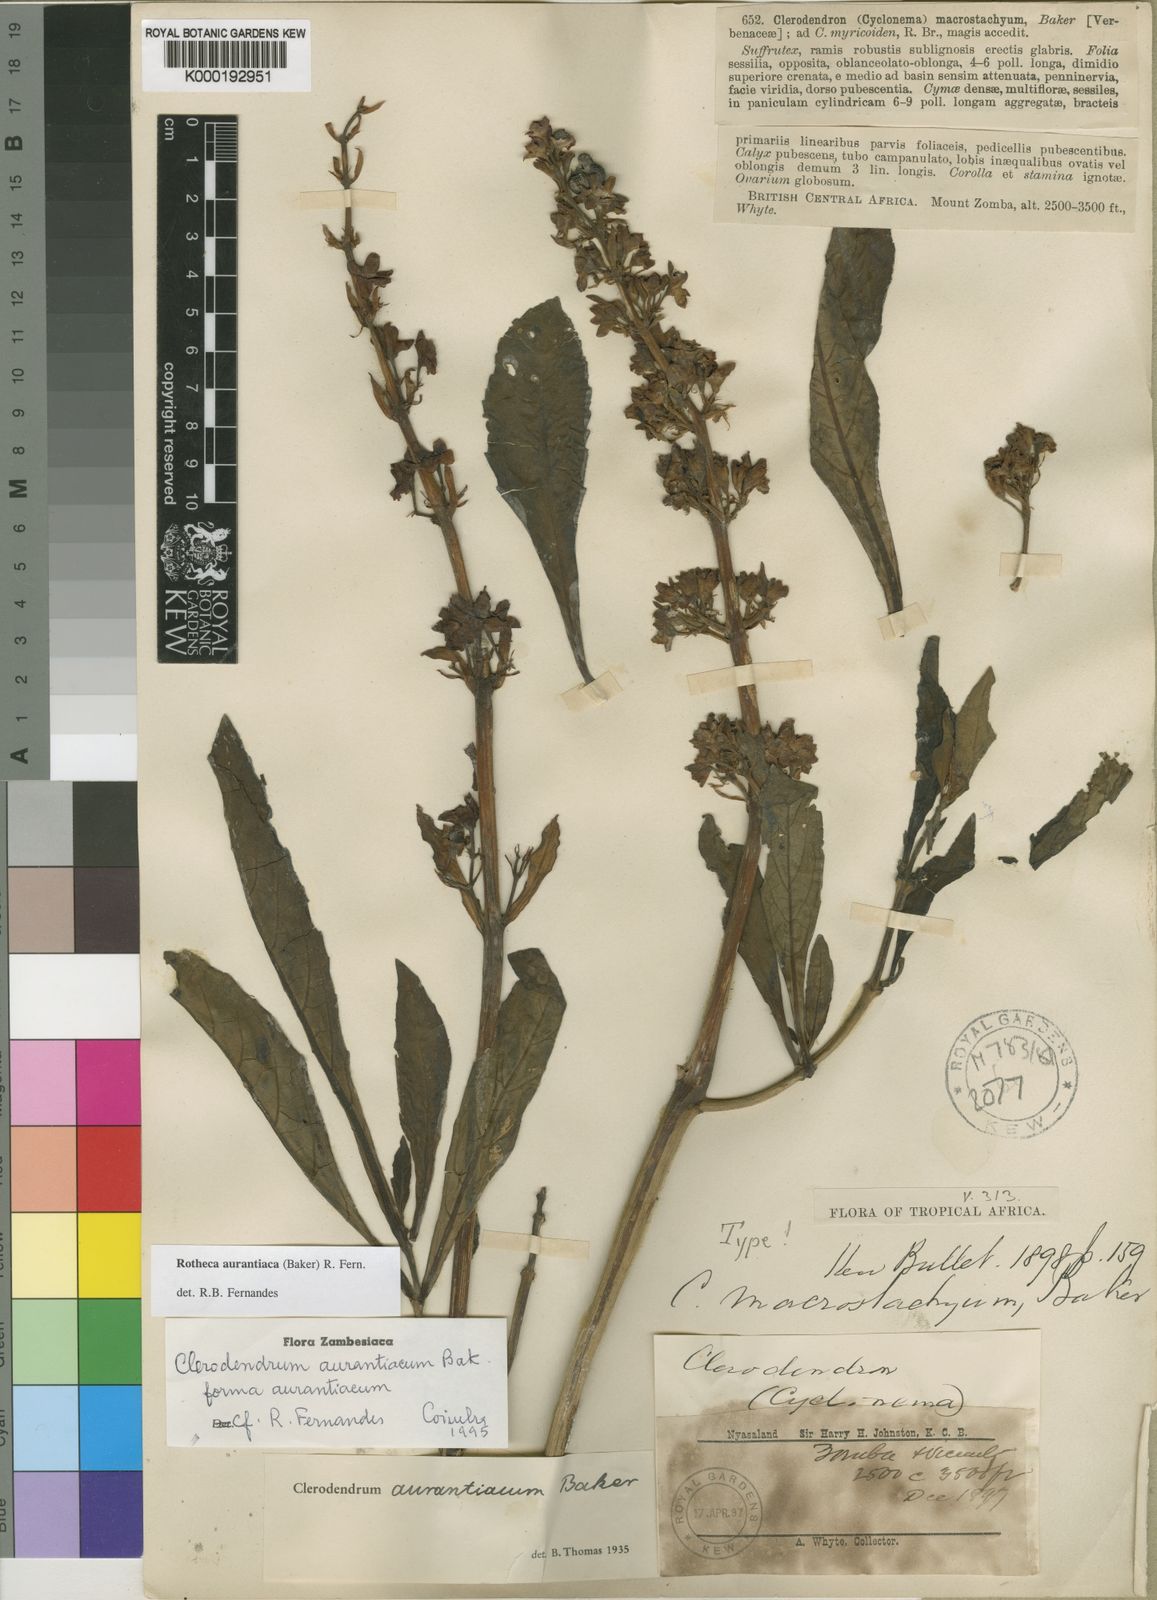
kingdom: Plantae
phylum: Tracheophyta
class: Magnoliopsida
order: Lamiales
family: Lamiaceae
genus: Rotheca
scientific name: Rotheca aurantiaca
